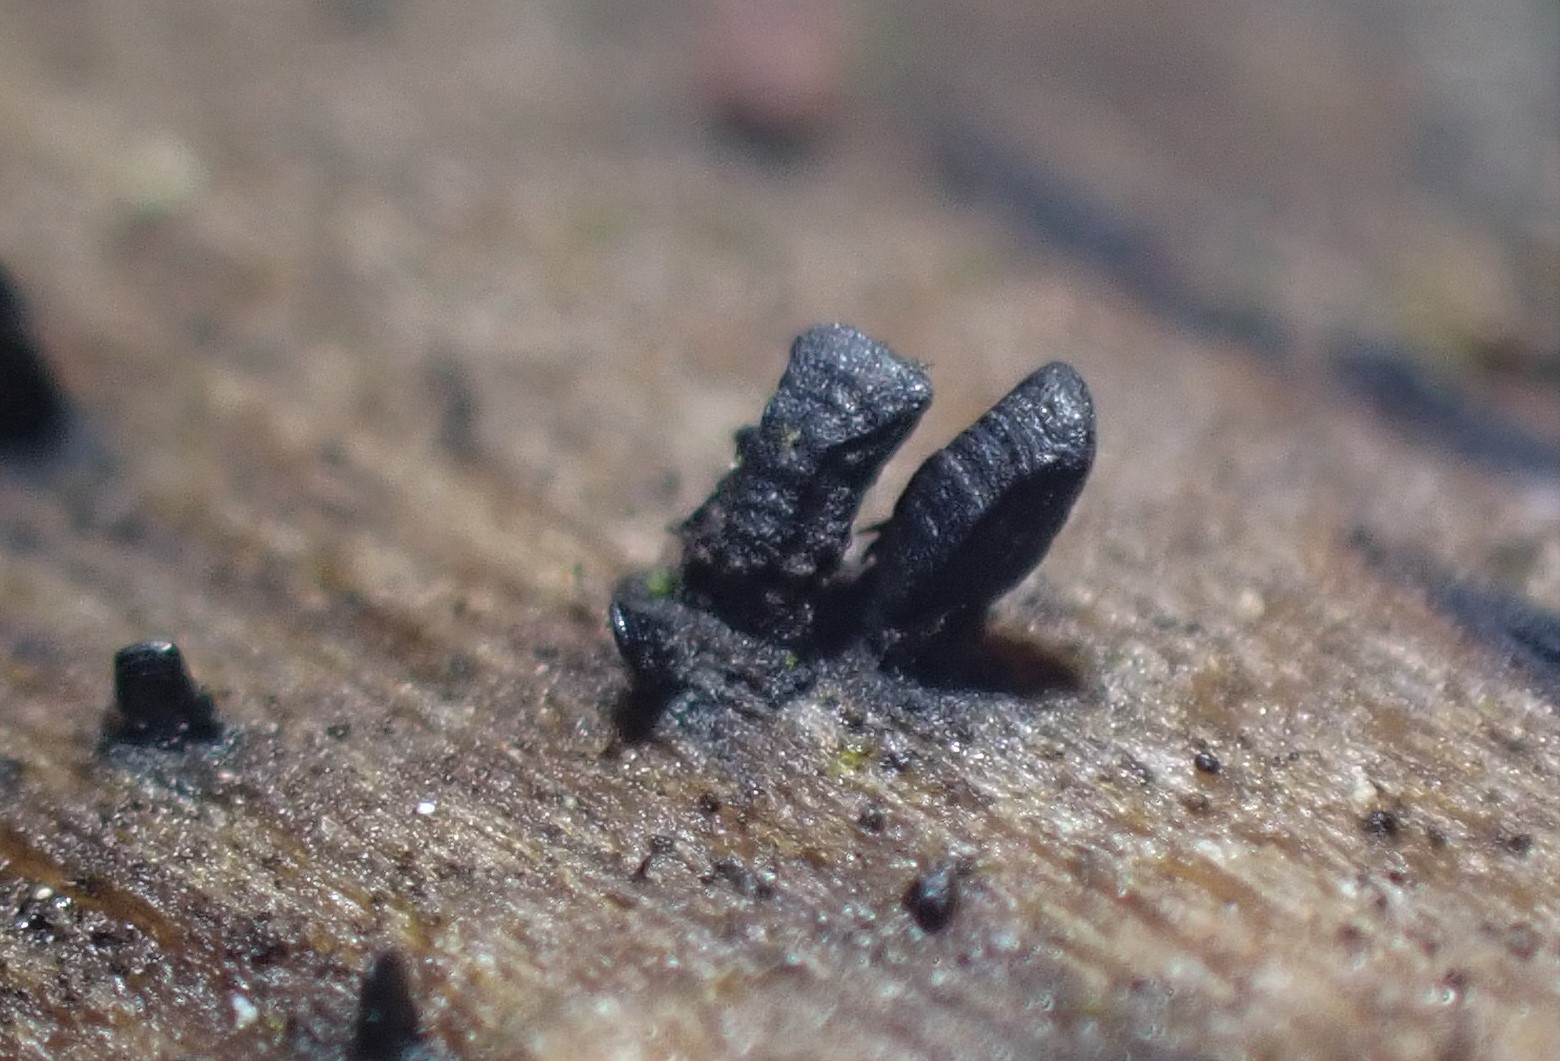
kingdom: Fungi
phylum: Ascomycota
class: Eurotiomycetes
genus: Glyphium
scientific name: Glyphium elatum
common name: kuløkse
